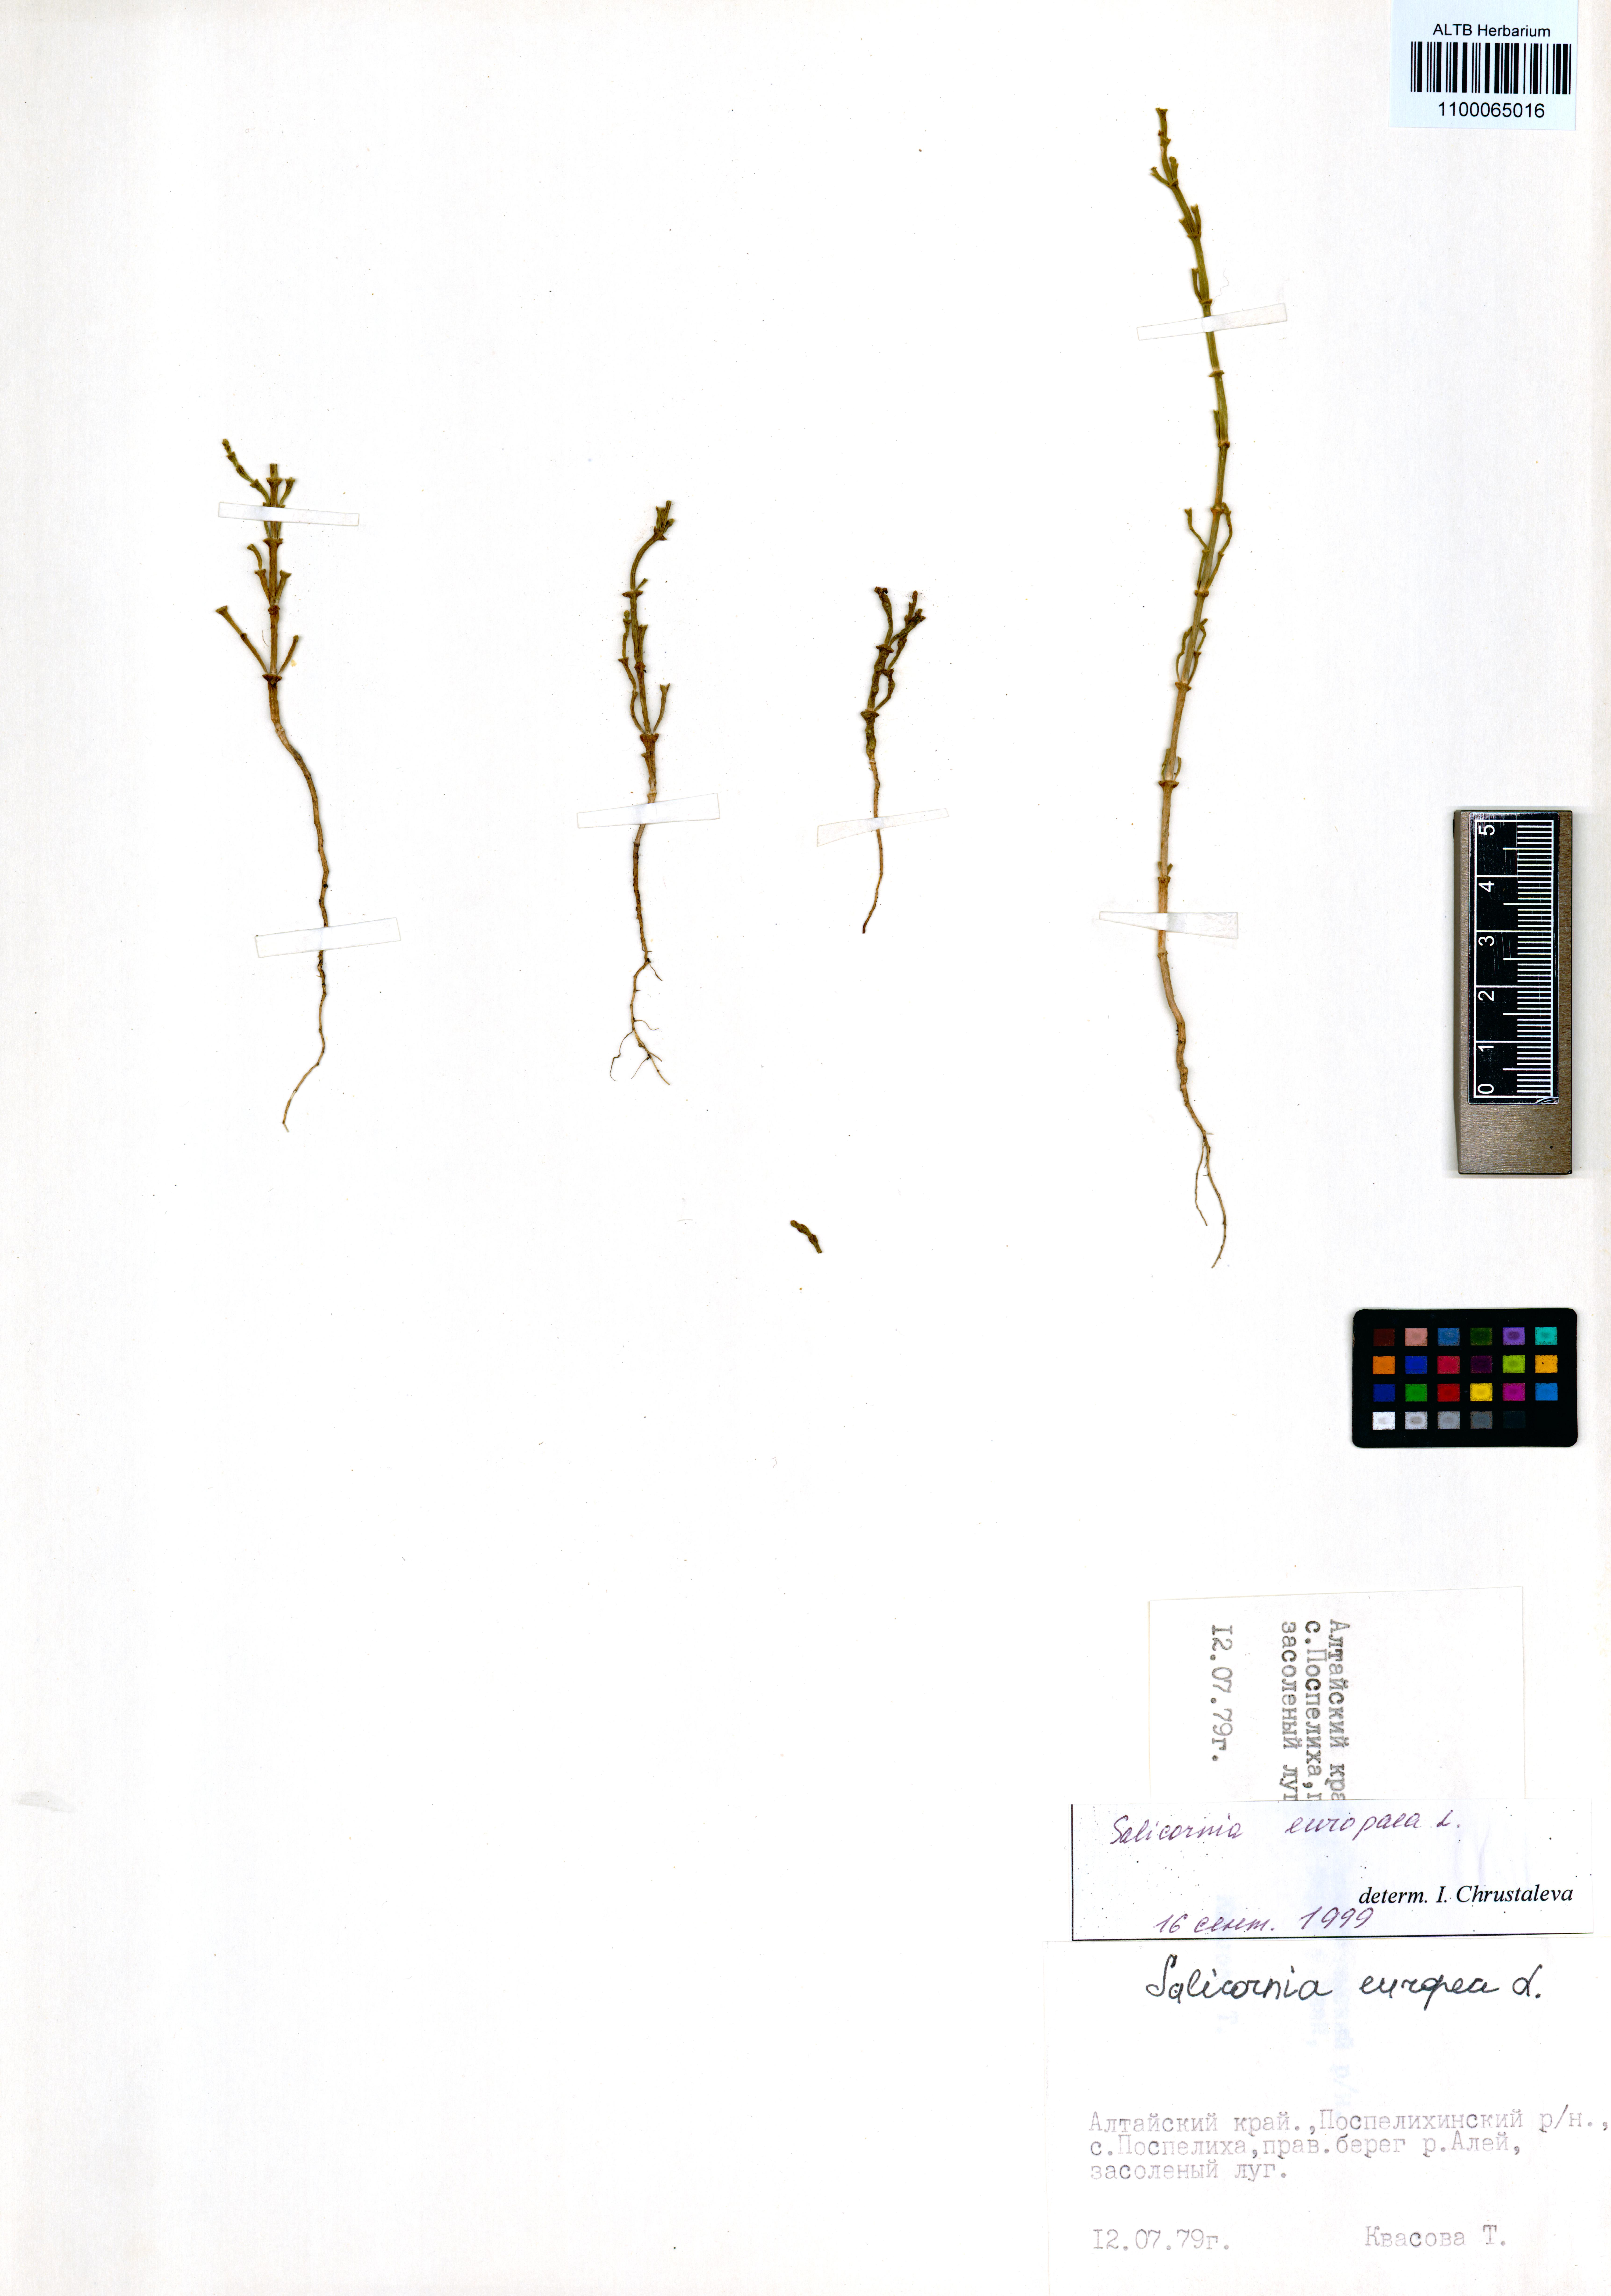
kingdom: Plantae
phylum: Tracheophyta
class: Magnoliopsida
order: Caryophyllales
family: Amaranthaceae
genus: Salicornia
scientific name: Salicornia europaea
